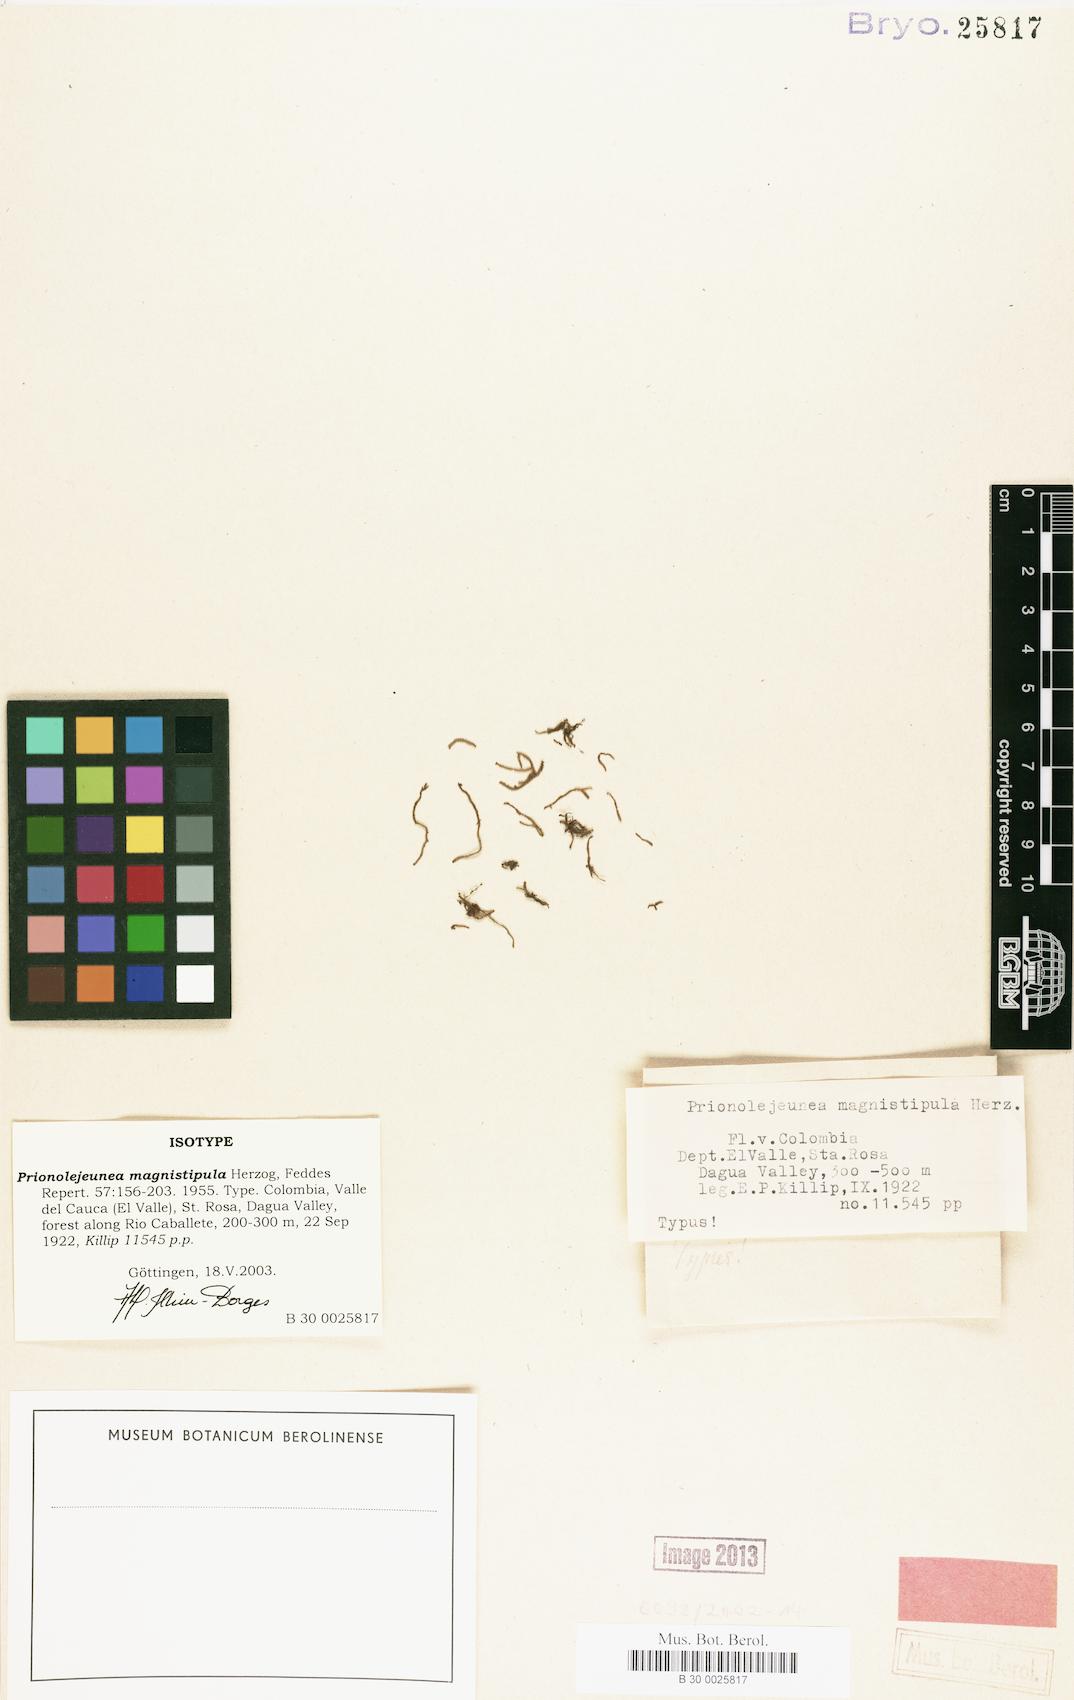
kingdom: Plantae
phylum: Marchantiophyta
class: Jungermanniopsida
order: Porellales
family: Lejeuneaceae
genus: Prionolejeunea
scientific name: Prionolejeunea magnistipula
